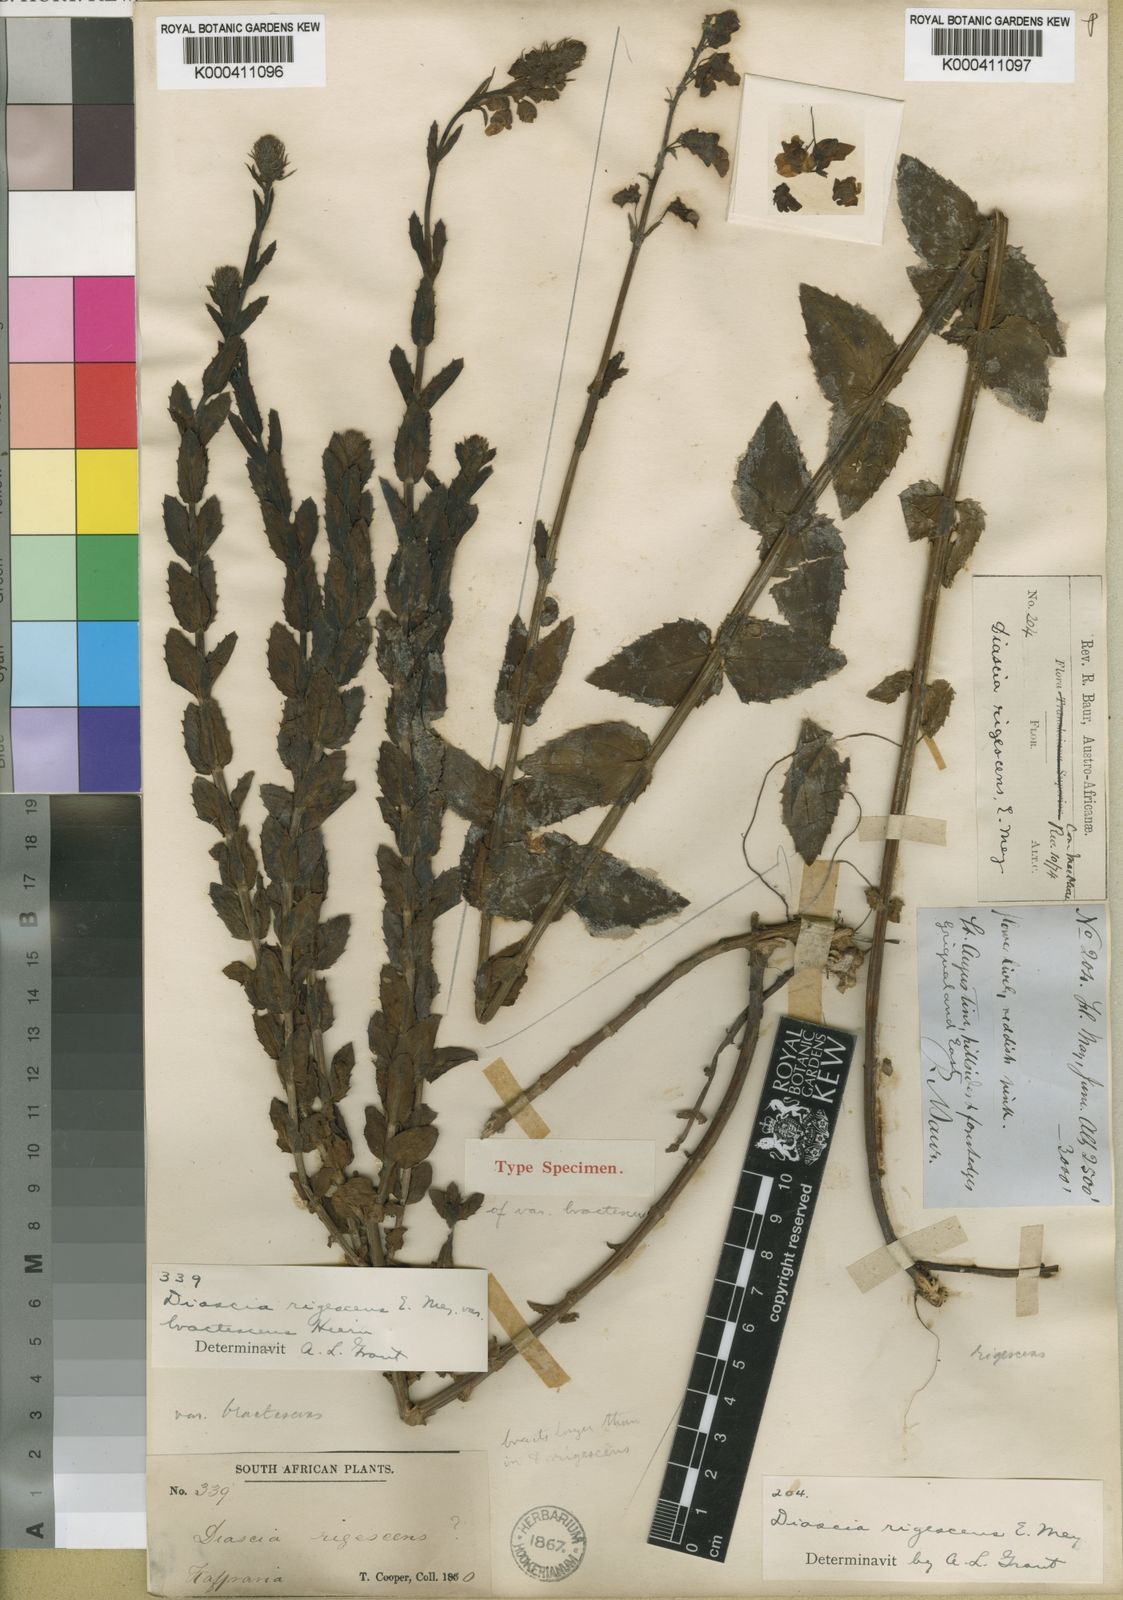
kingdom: Plantae
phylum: Tracheophyta
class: Magnoliopsida
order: Lamiales
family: Scrophulariaceae
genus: Diascia
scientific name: Diascia rigescens
